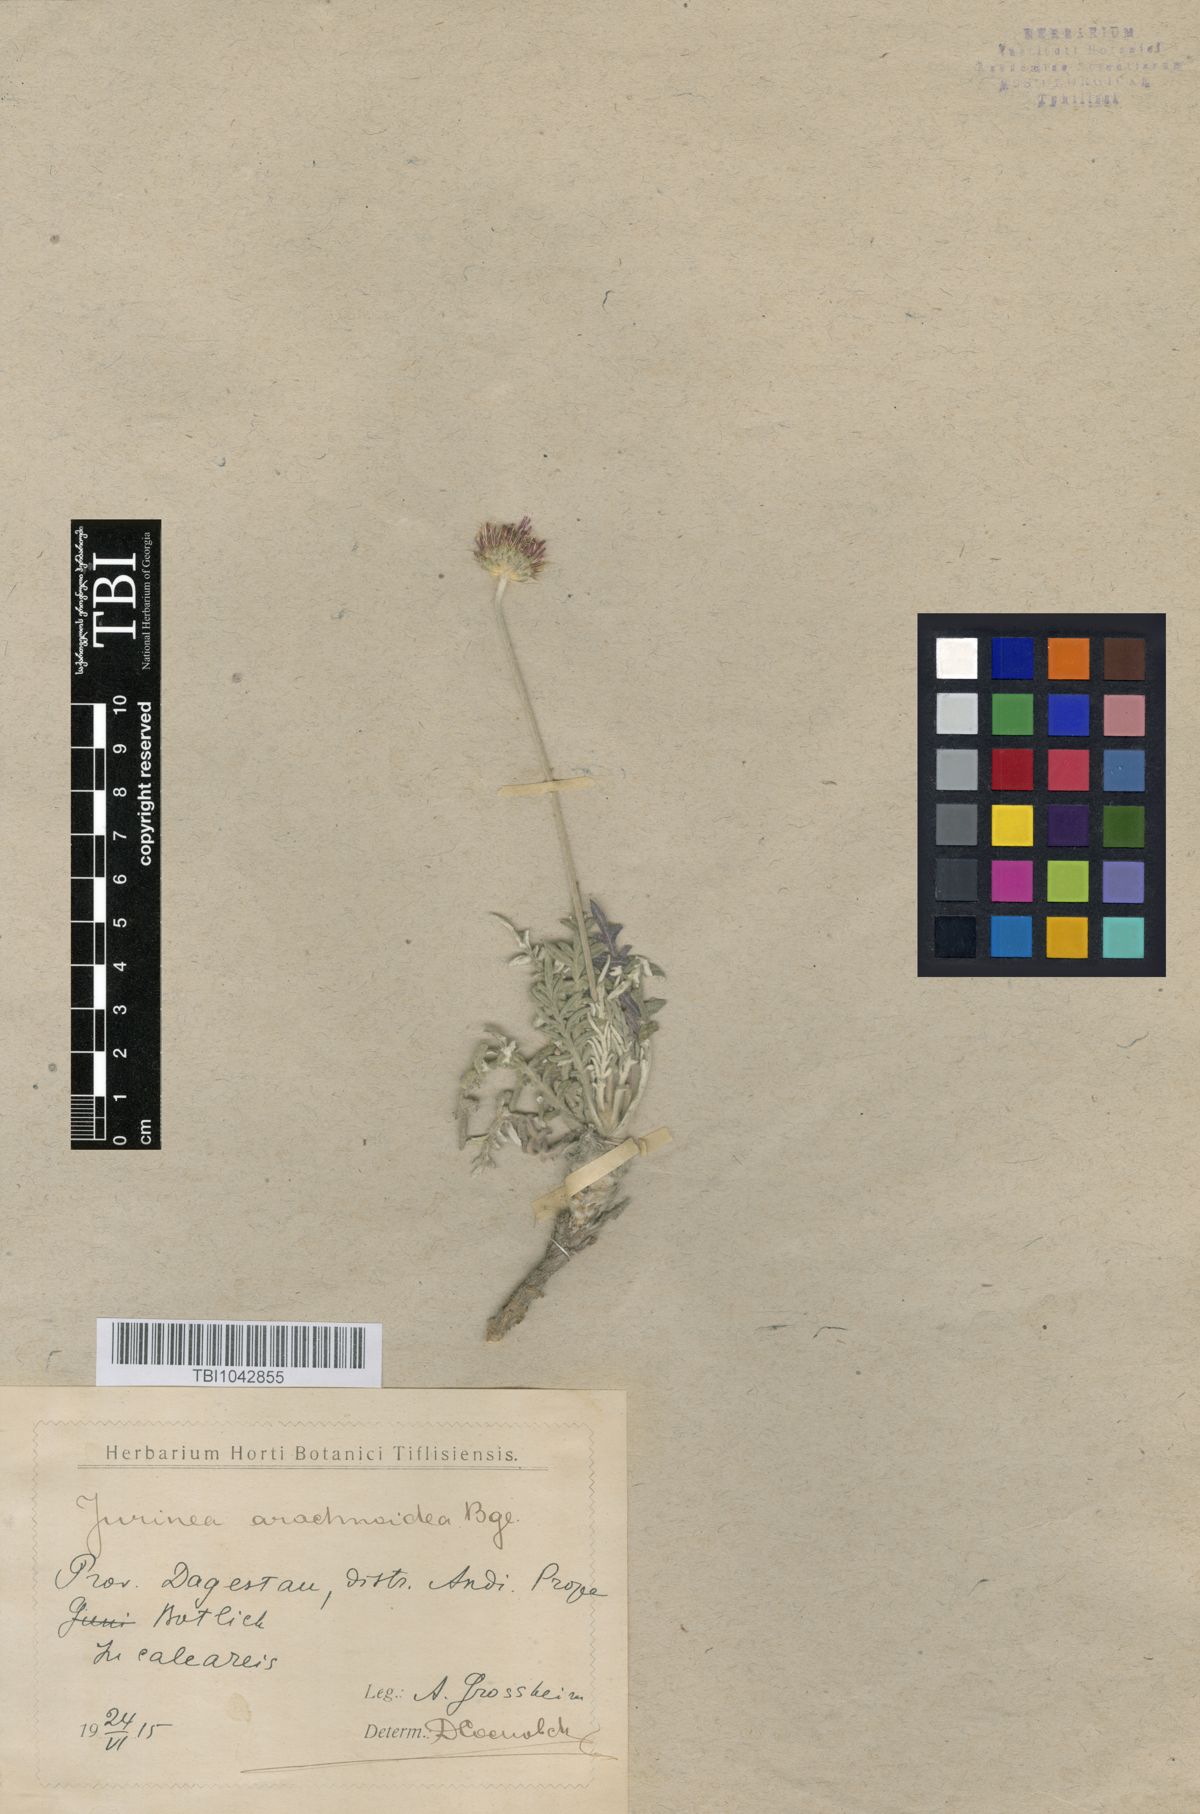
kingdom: Plantae
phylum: Tracheophyta
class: Magnoliopsida
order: Asterales
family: Asteraceae
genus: Jurinea
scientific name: Jurinea blanda
